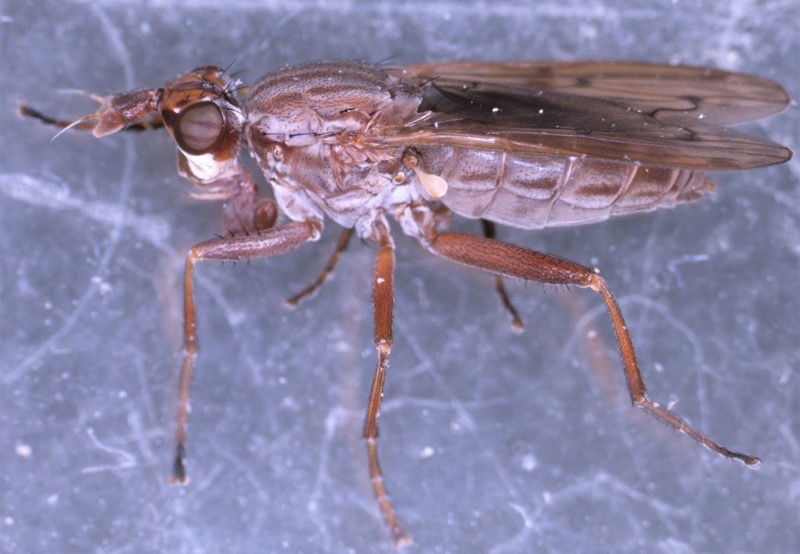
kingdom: Animalia
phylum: Arthropoda
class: Insecta
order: Diptera
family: Sciomyzidae
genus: Elgiva
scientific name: Elgiva solicita
